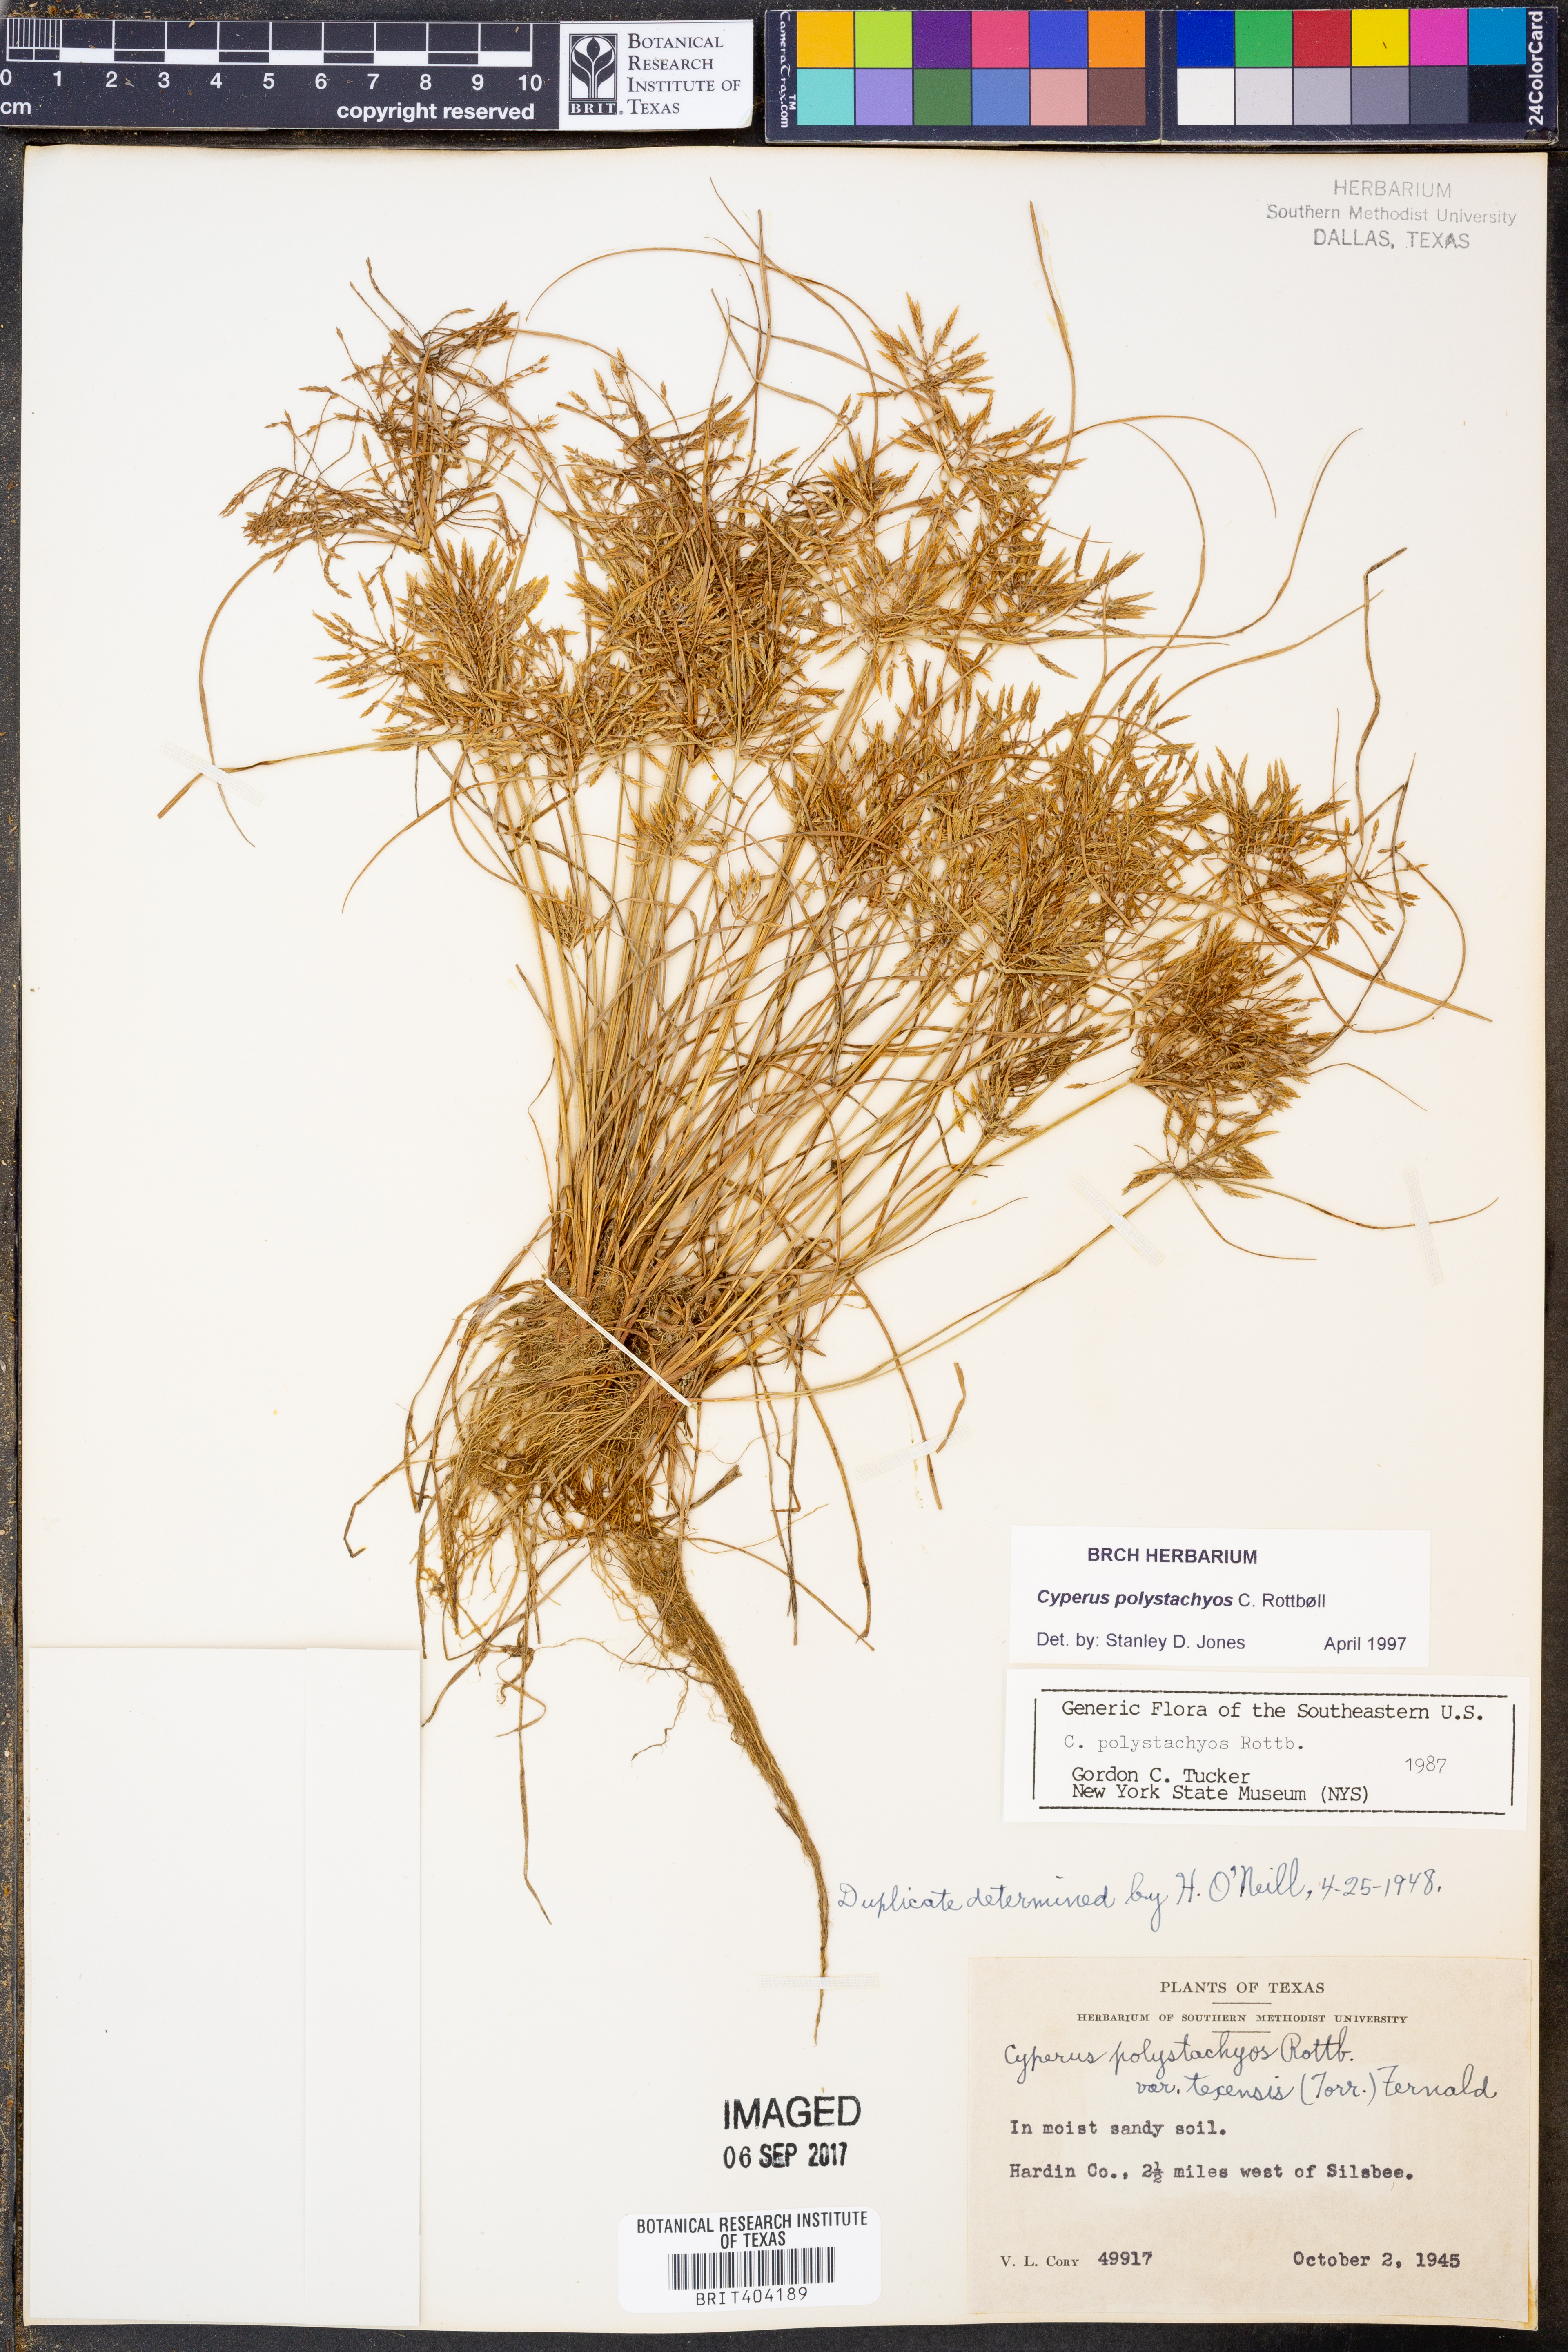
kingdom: Plantae
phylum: Tracheophyta
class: Liliopsida
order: Poales
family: Cyperaceae
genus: Cyperus
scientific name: Cyperus polystachyos
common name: Bunchy flat sedge
